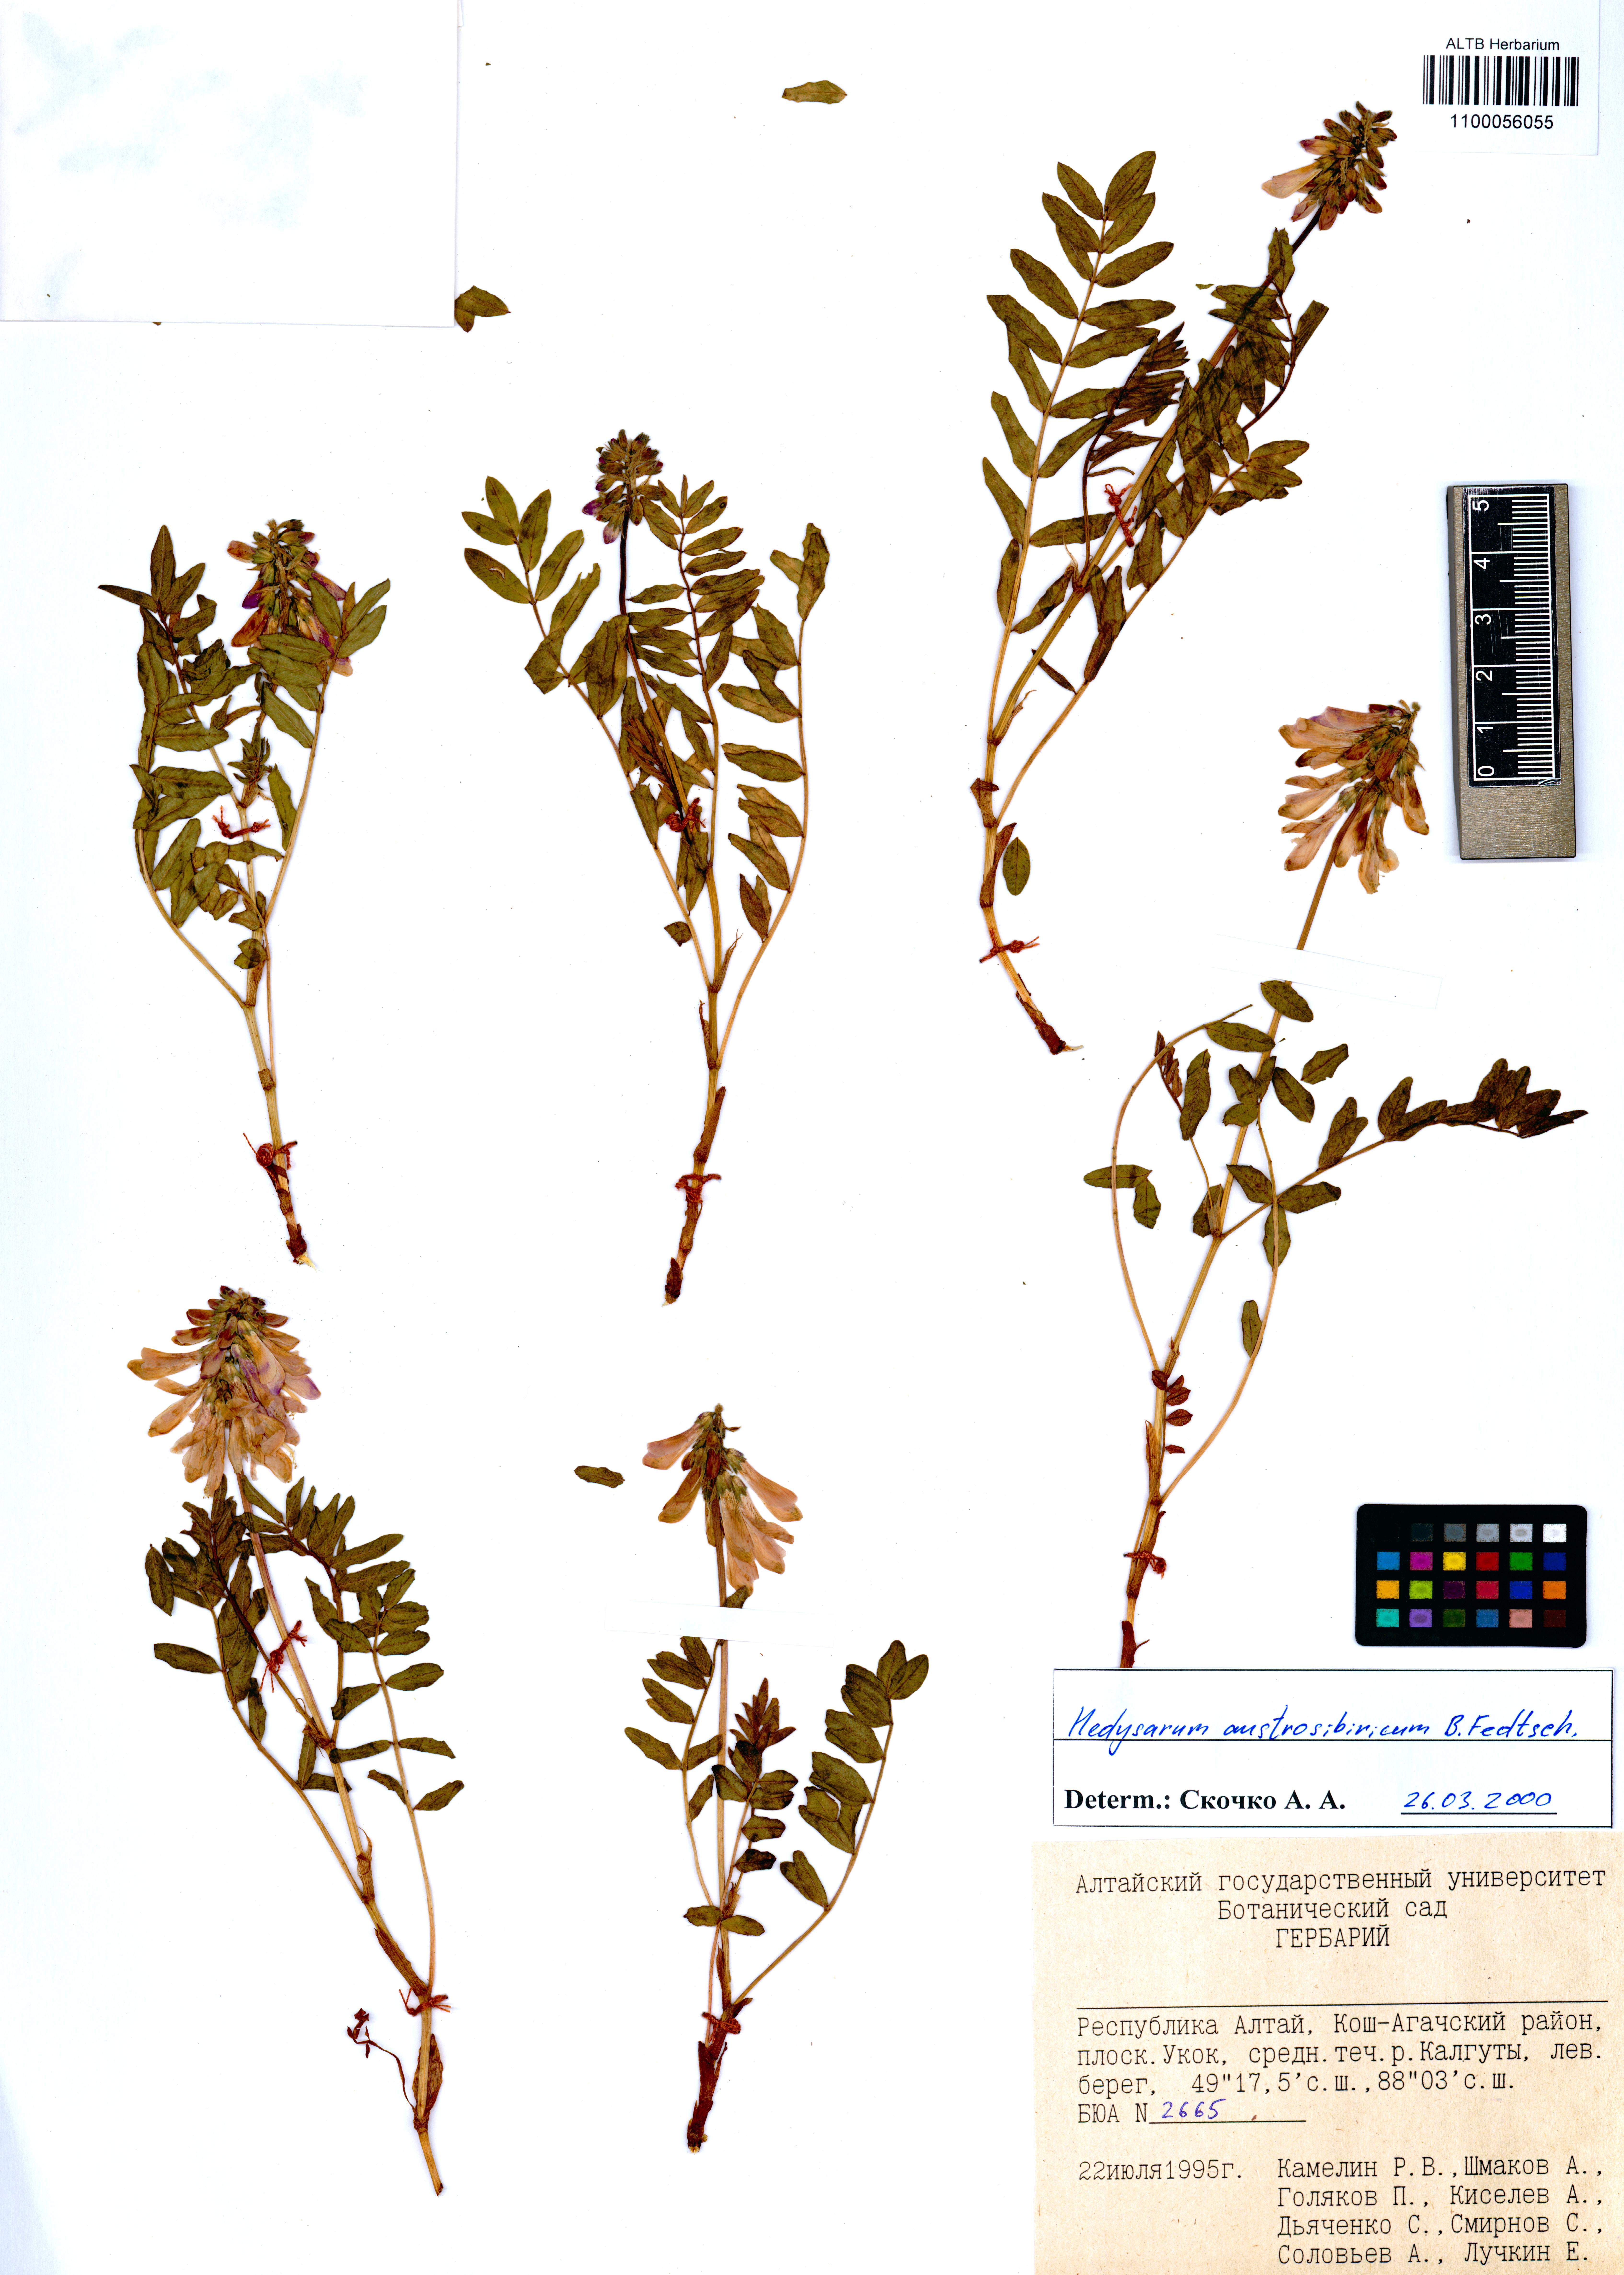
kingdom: Plantae
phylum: Tracheophyta
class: Magnoliopsida
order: Fabales
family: Fabaceae
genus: Hedysarum
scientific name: Hedysarum neglectum
